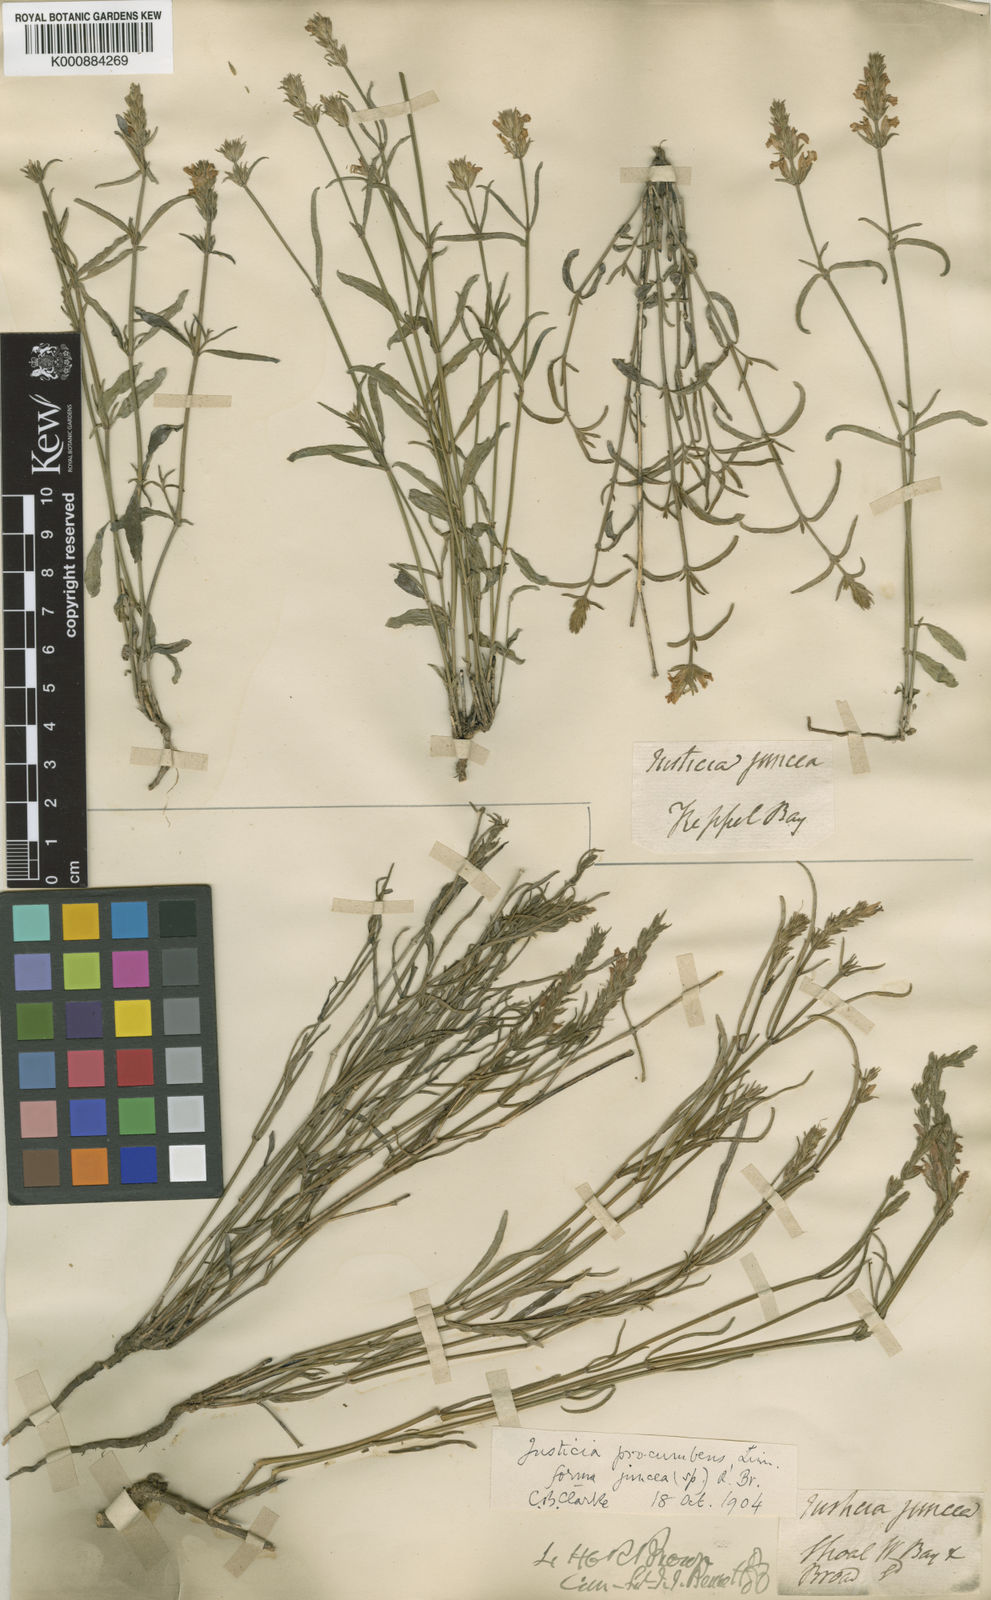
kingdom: Plantae
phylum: Tracheophyta
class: Magnoliopsida
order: Lamiales
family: Acanthaceae
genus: Rostellularia
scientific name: Rostellularia procumbens
